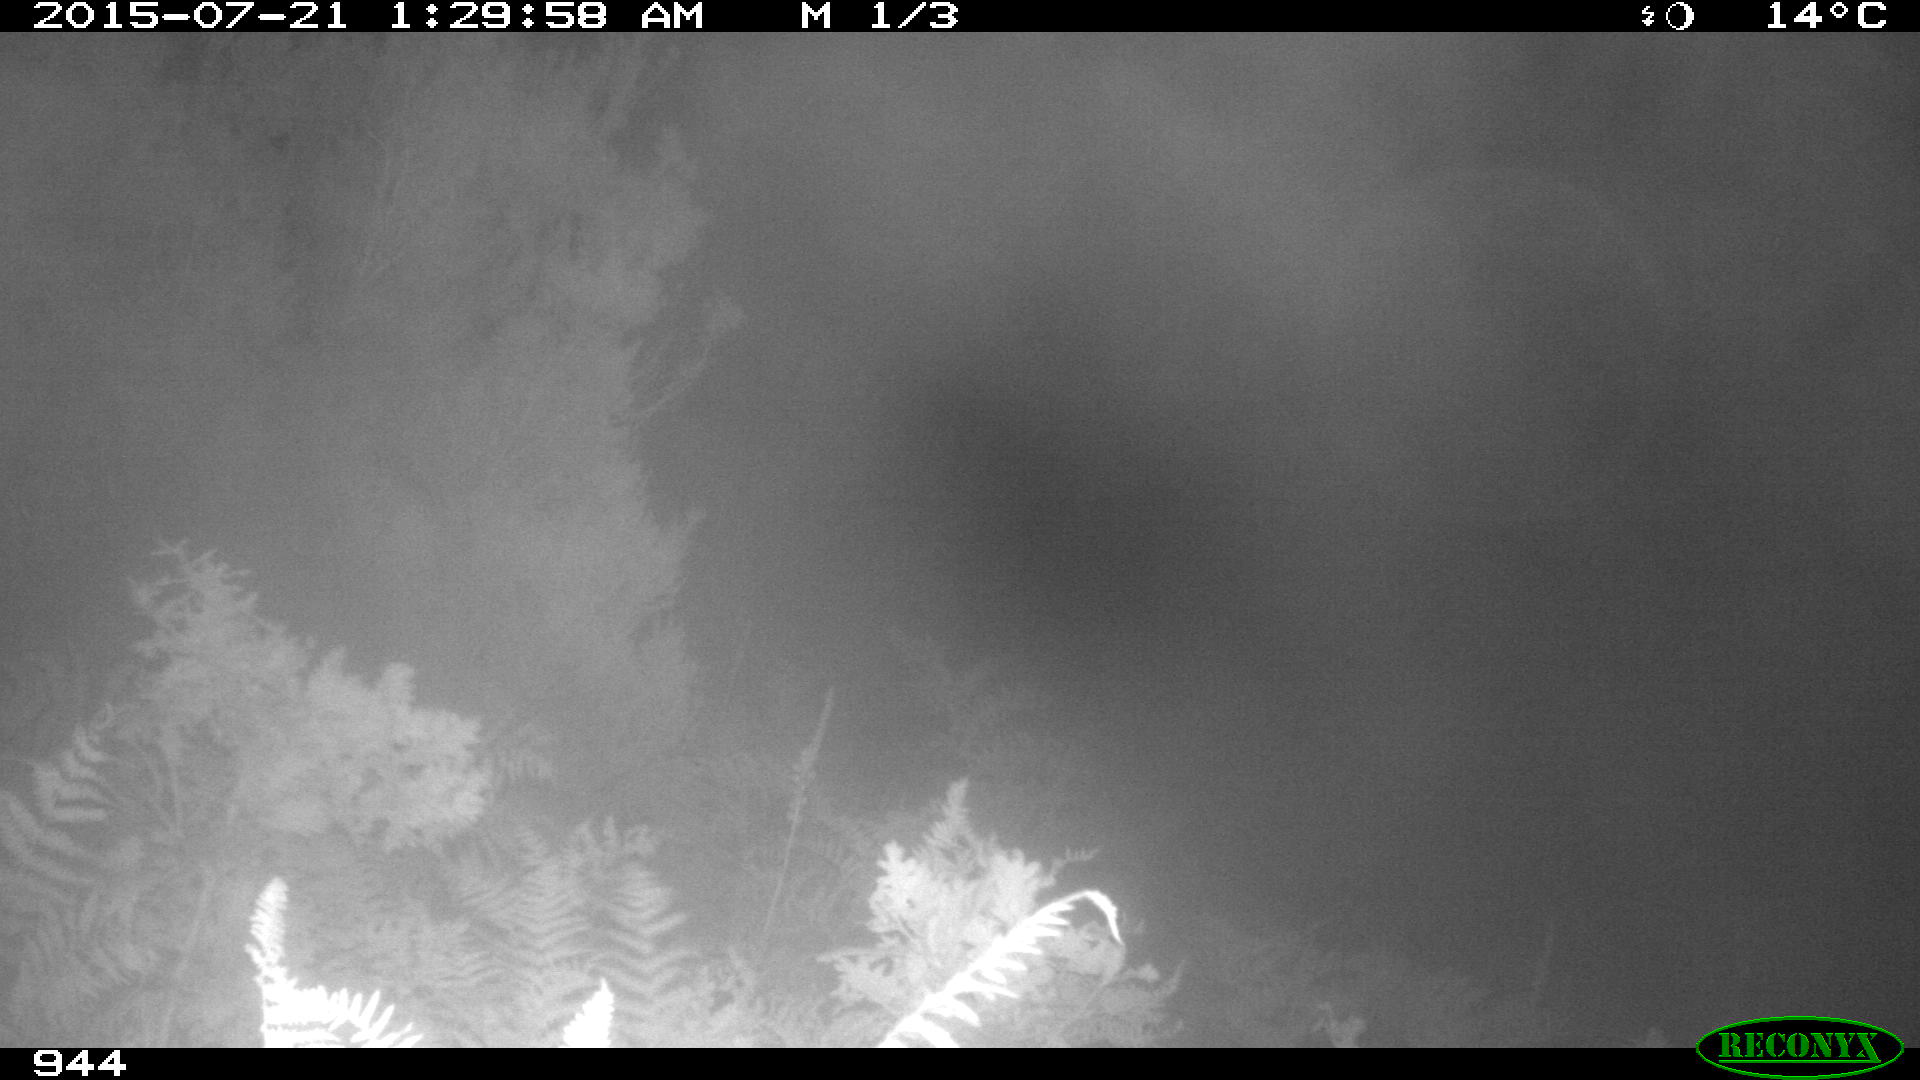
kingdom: Animalia
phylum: Chordata
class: Mammalia
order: Artiodactyla
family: Bovidae
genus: Bos
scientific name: Bos taurus
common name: Domesticated cattle
